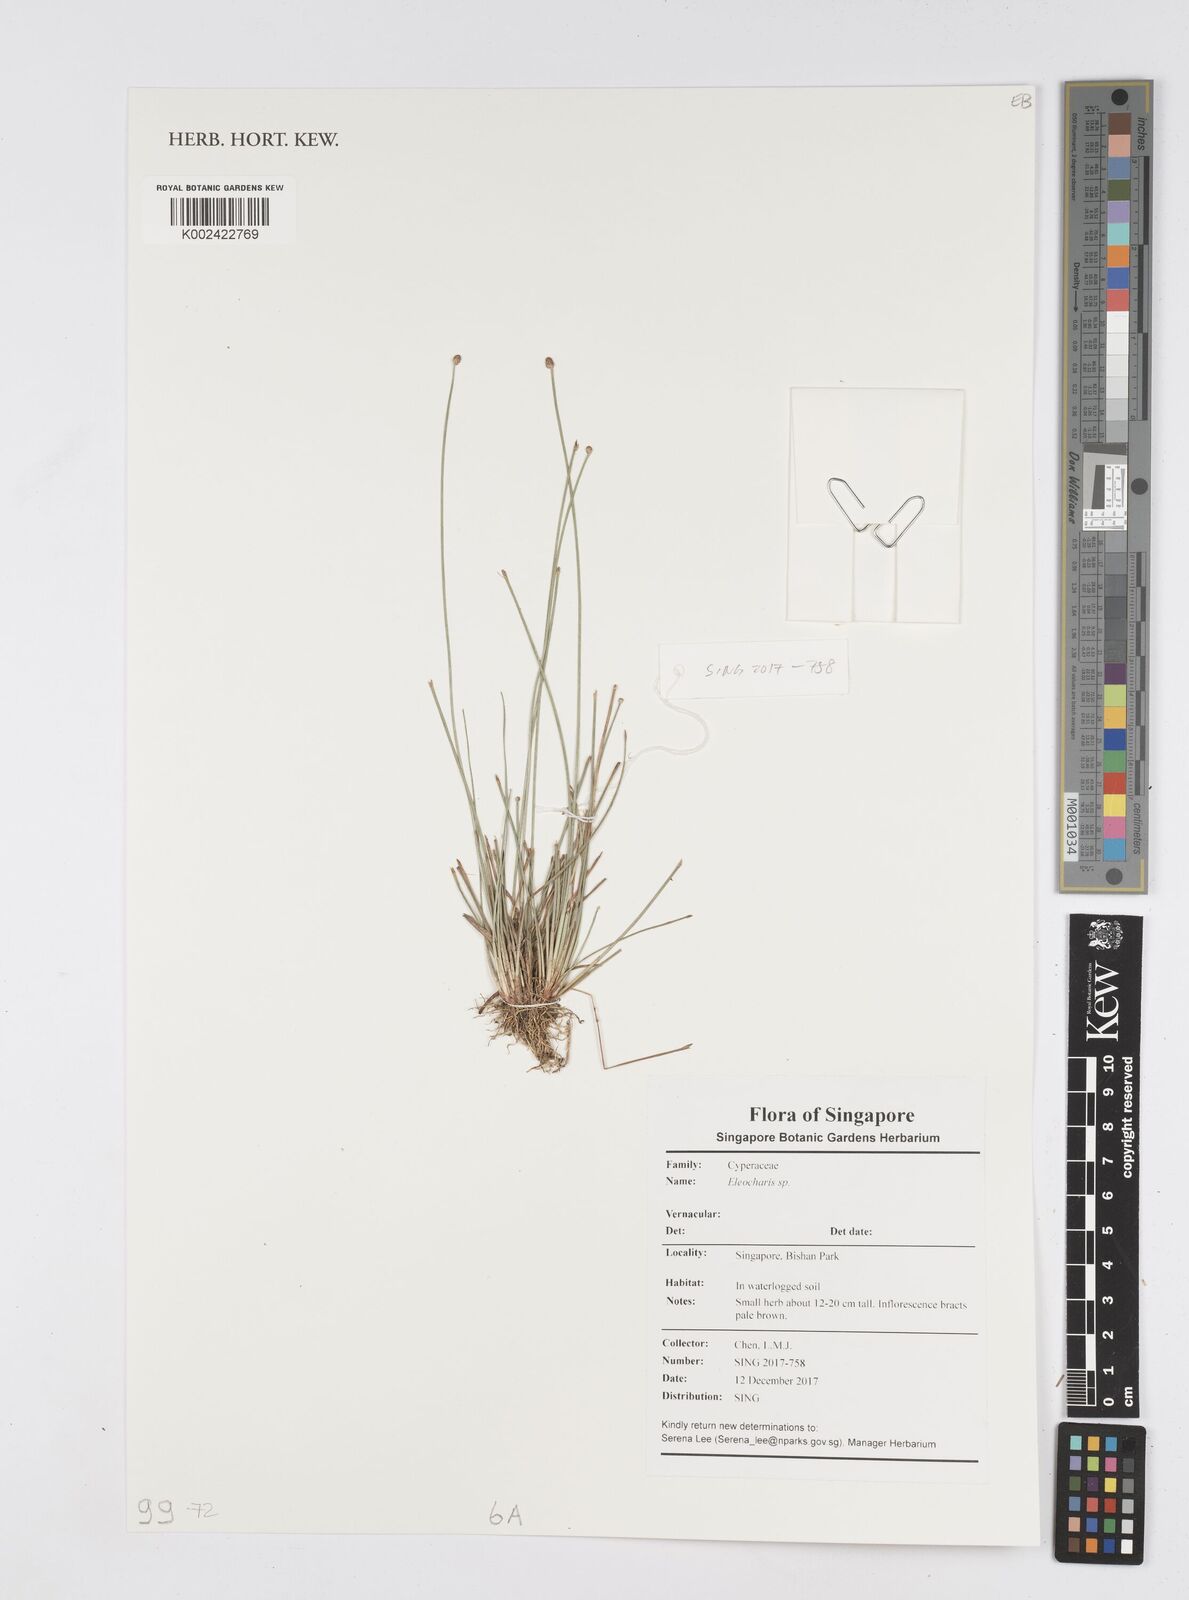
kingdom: Plantae
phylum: Tracheophyta
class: Liliopsida
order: Poales
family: Cyperaceae
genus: Eleocharis
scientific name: Eleocharis
